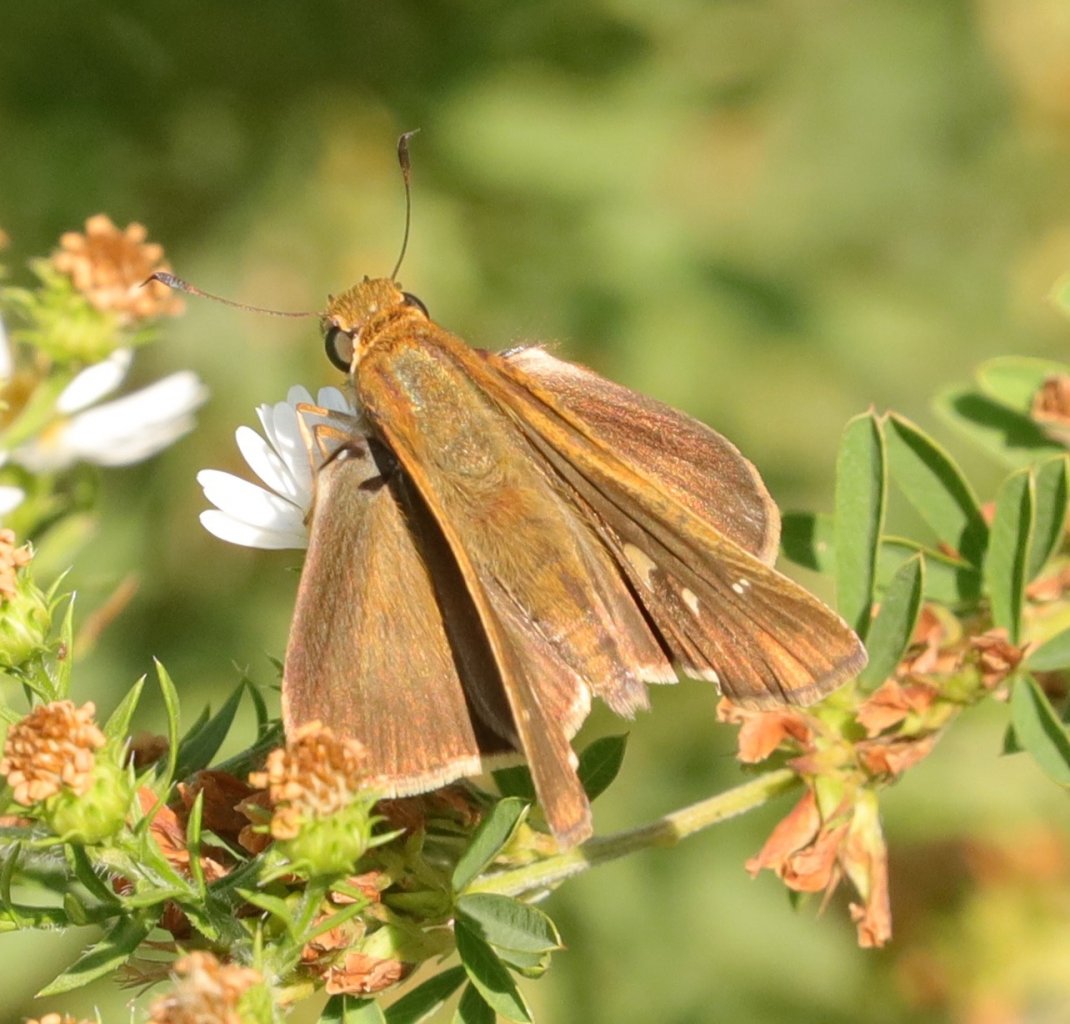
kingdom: Animalia
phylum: Arthropoda
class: Insecta
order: Lepidoptera
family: Hesperiidae
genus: Panoquina
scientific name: Panoquina ocola
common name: Ocola Skipper
